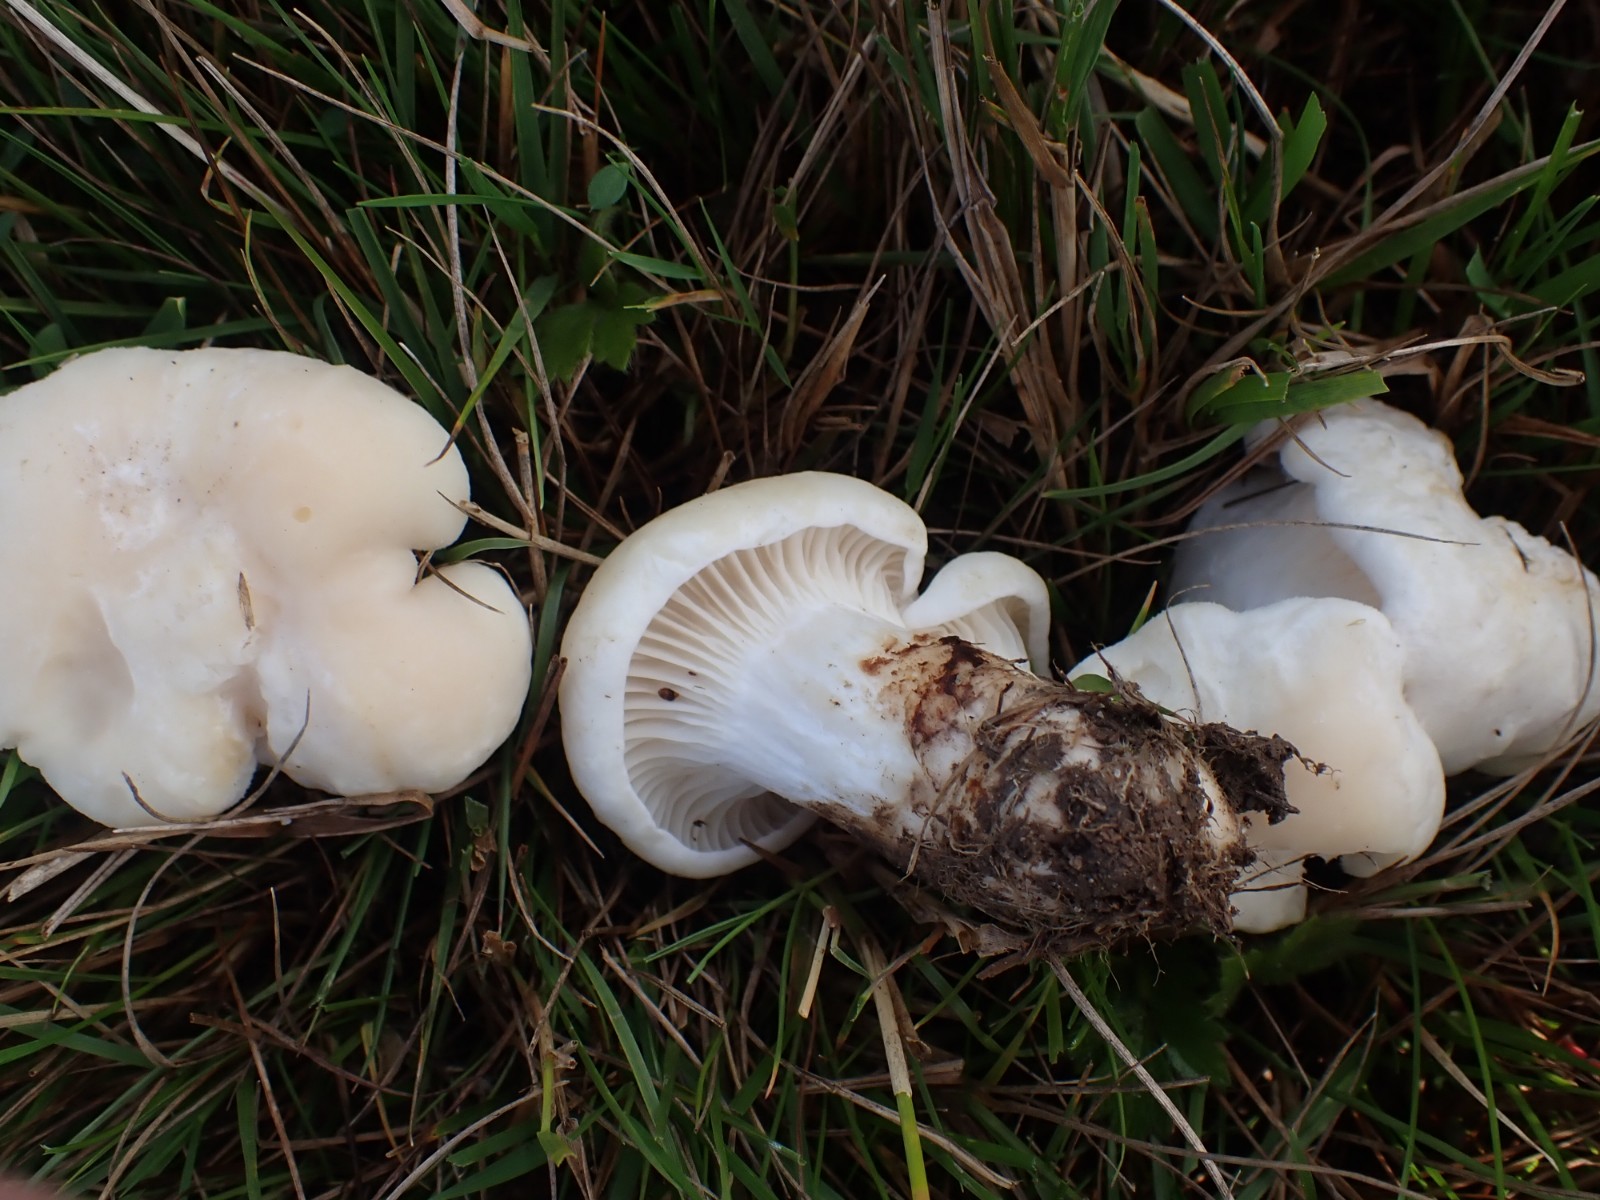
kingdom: Fungi
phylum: Basidiomycota
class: Agaricomycetes
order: Agaricales
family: Hygrophoraceae
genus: Cuphophyllus
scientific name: Cuphophyllus pratensis
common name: bleg vokshat
